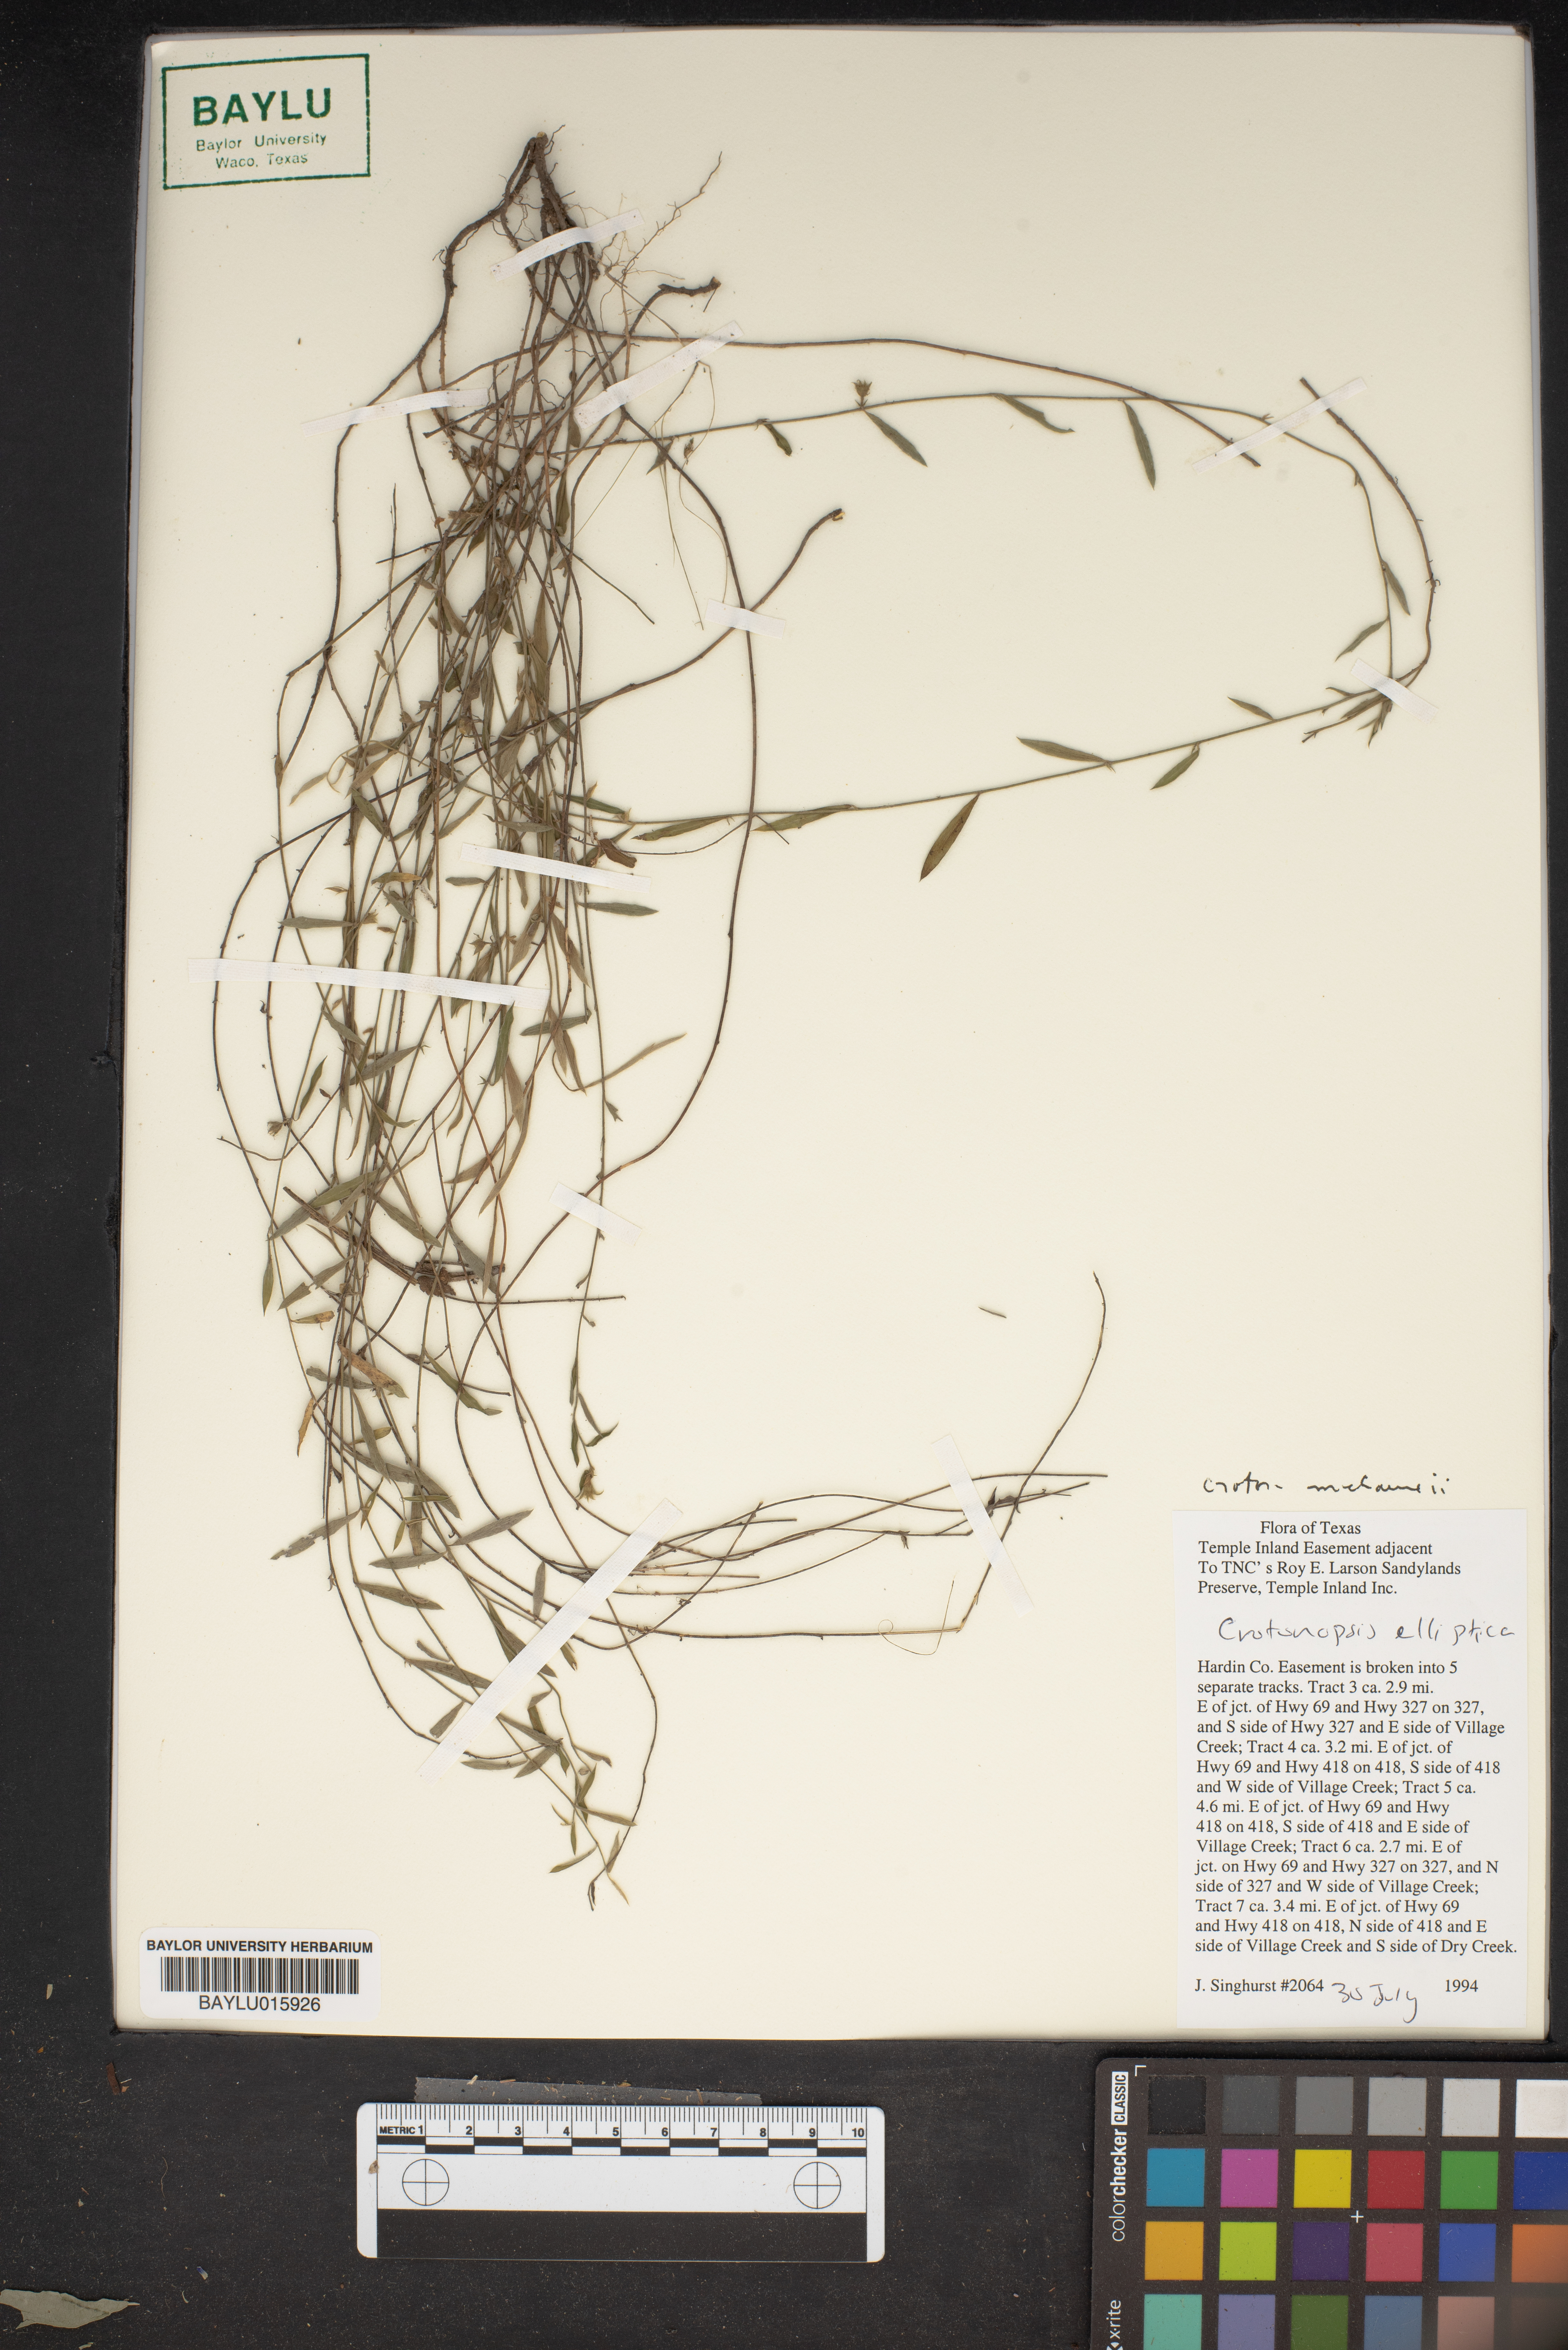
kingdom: Plantae
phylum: Tracheophyta
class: Magnoliopsida
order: Malpighiales
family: Euphorbiaceae
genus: Croton
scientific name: Croton michauxii
